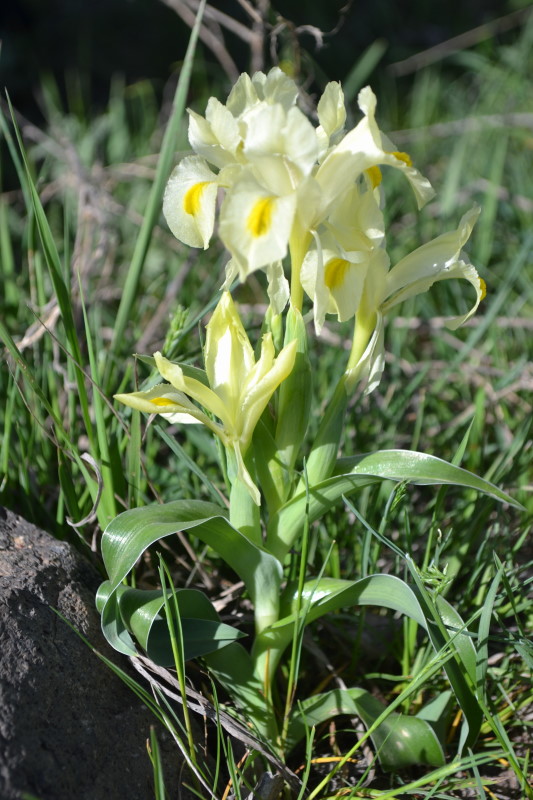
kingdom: Plantae
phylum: Tracheophyta
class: Liliopsida
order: Asparagales
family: Iridaceae
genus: Iris
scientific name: Iris pumila
